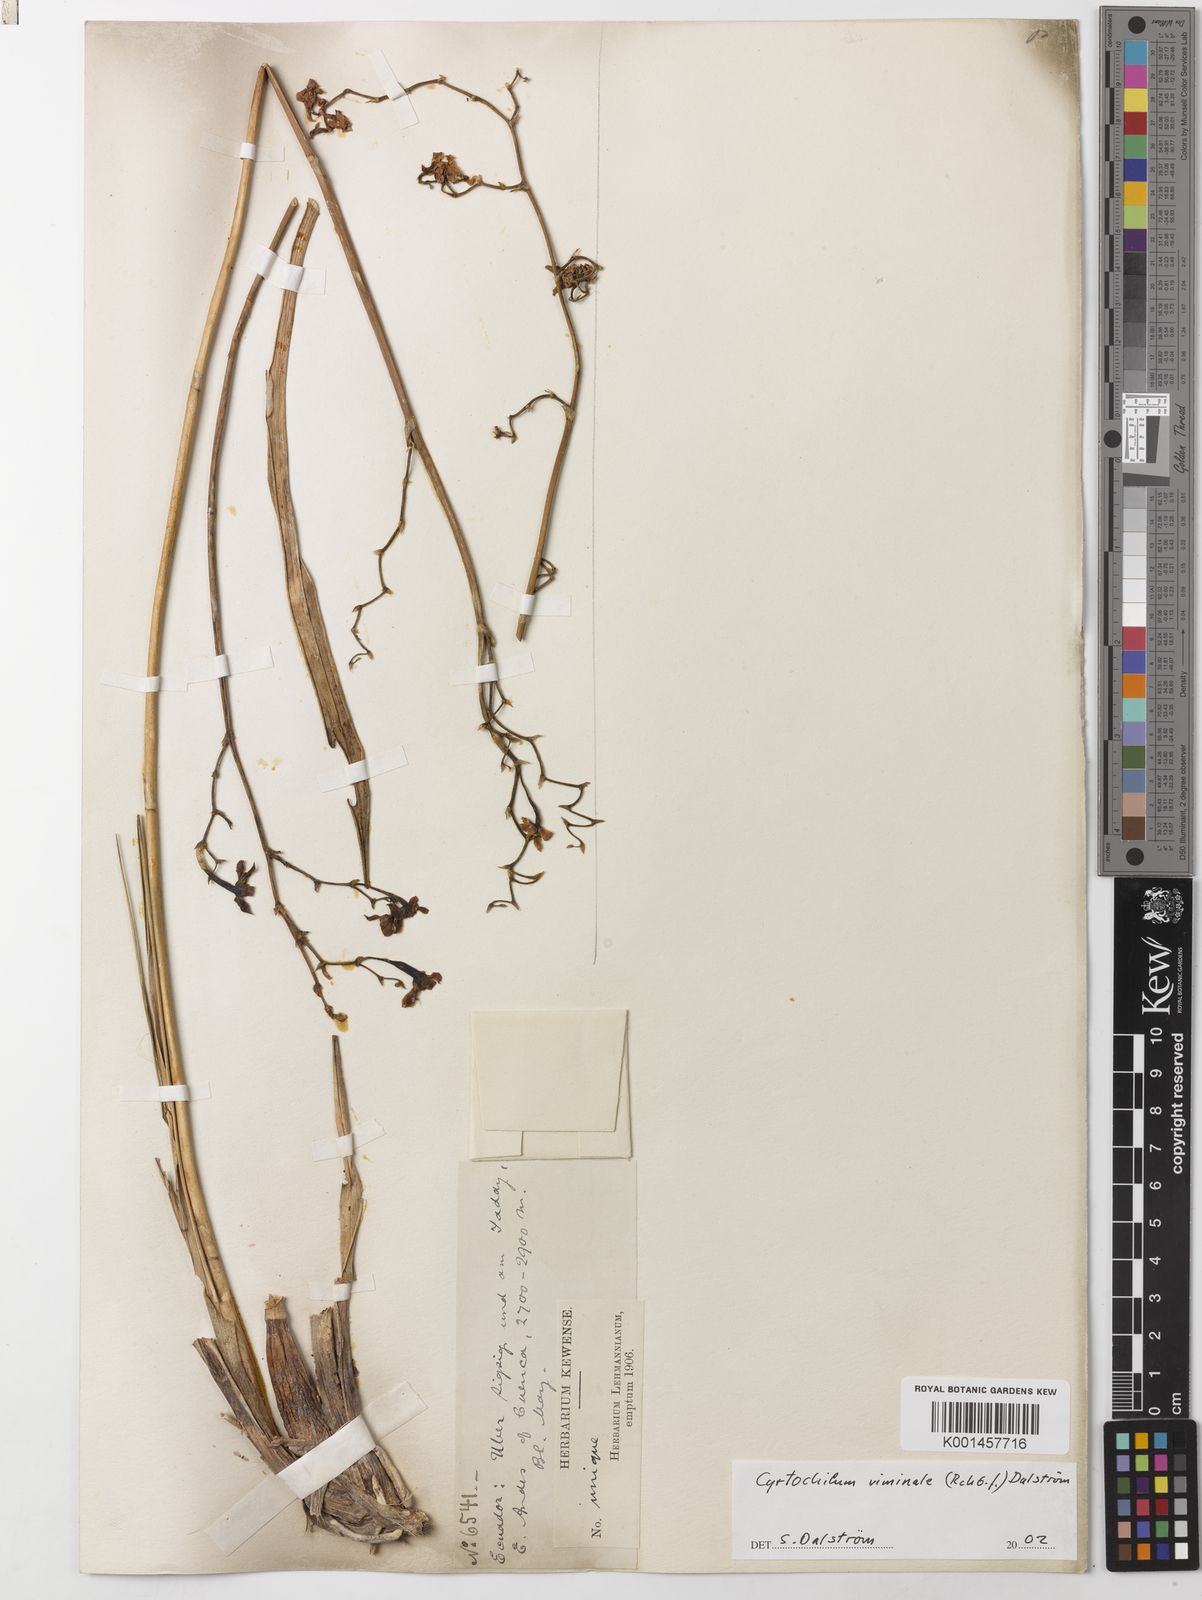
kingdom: Plantae
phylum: Tracheophyta
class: Liliopsida
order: Asparagales
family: Orchidaceae
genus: Cyrtochilum
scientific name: Cyrtochilum
